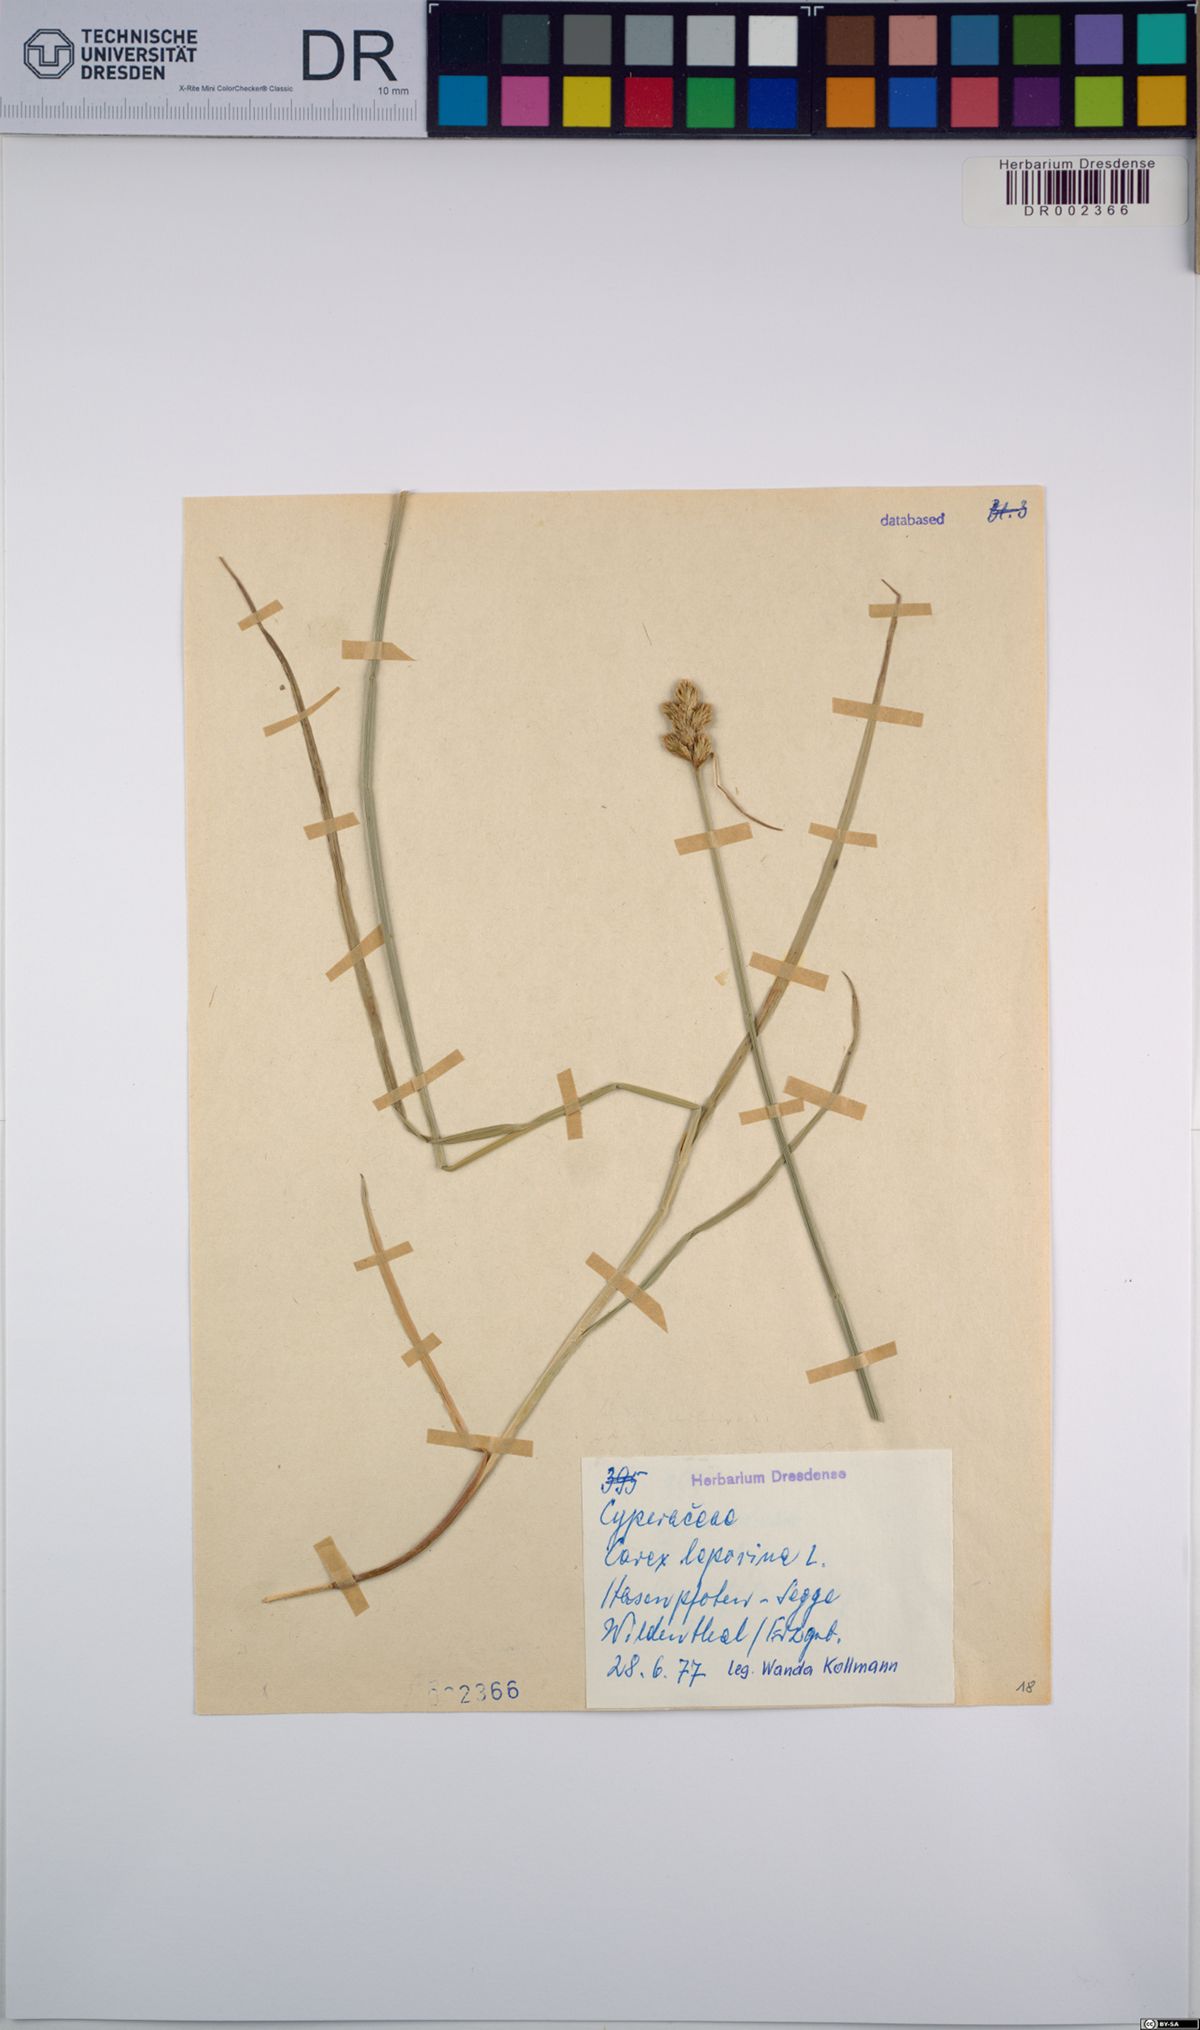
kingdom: Plantae
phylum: Tracheophyta
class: Liliopsida
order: Poales
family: Cyperaceae
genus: Carex
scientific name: Carex leporina
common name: Oval sedge
